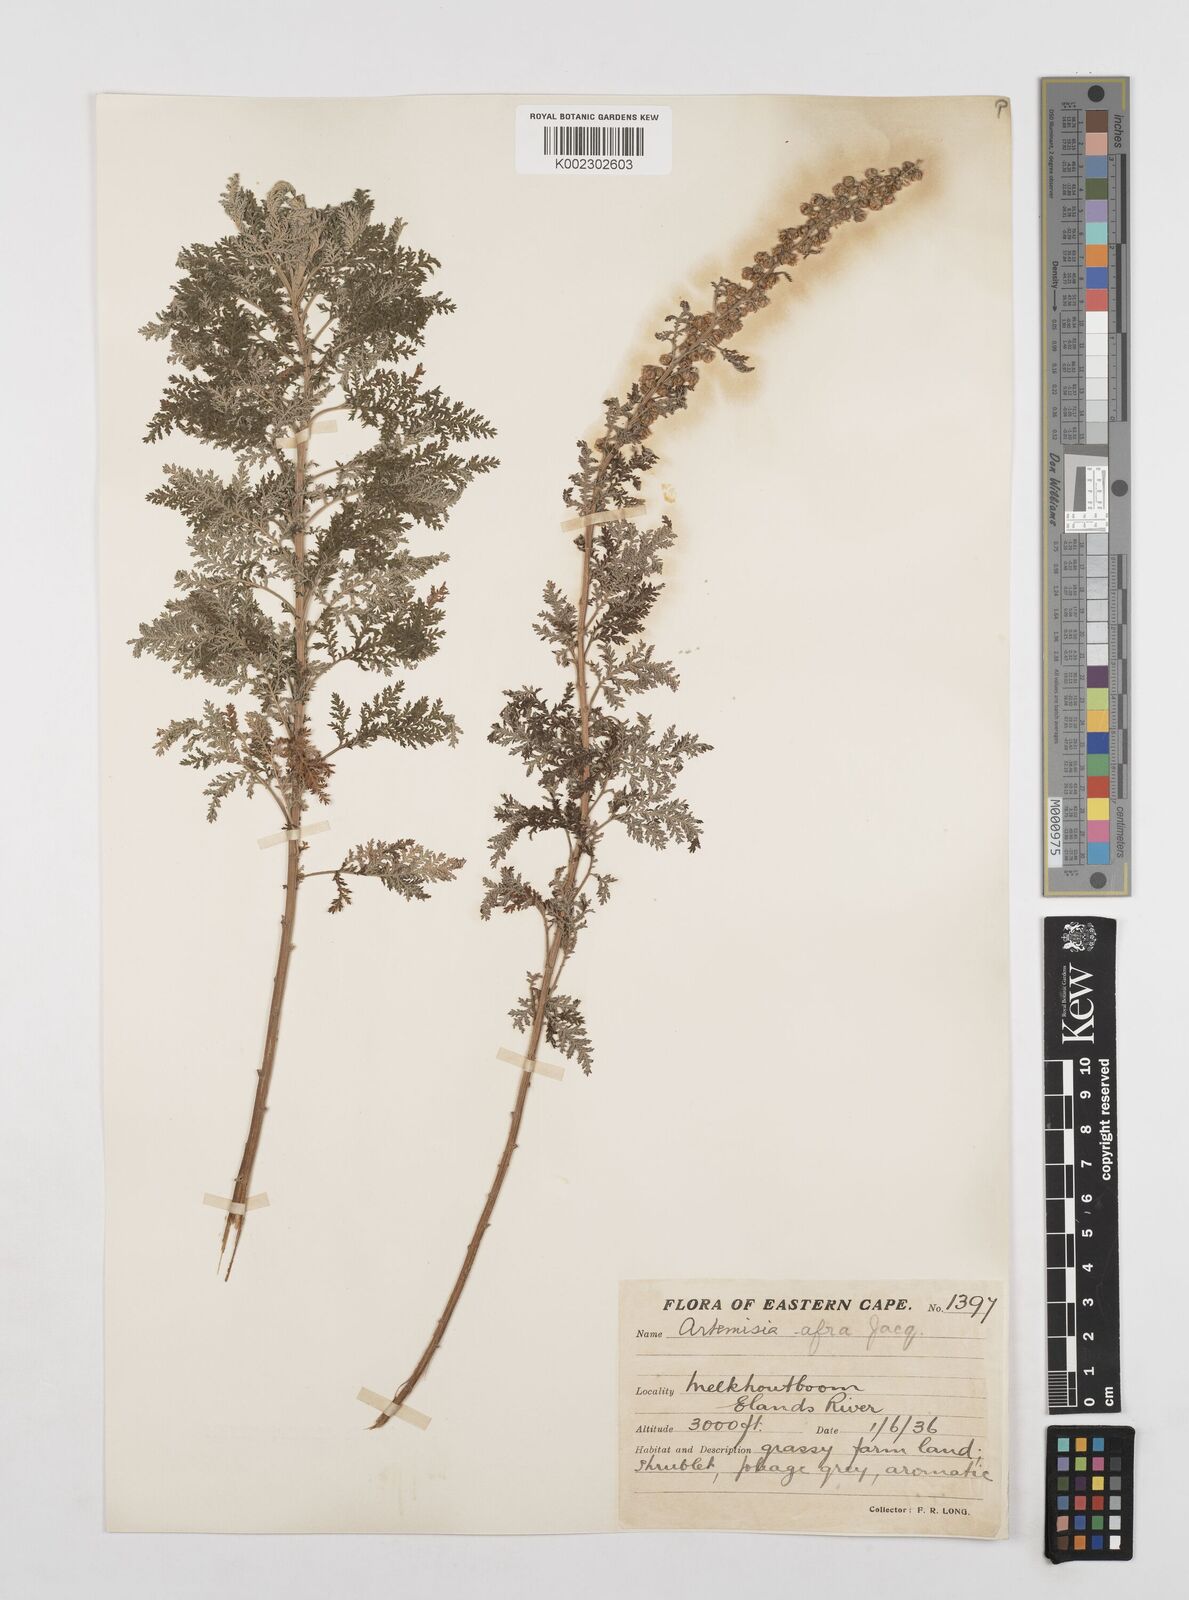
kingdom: Plantae
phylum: Tracheophyta
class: Magnoliopsida
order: Asterales
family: Asteraceae
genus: Artemisia
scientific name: Artemisia afra
